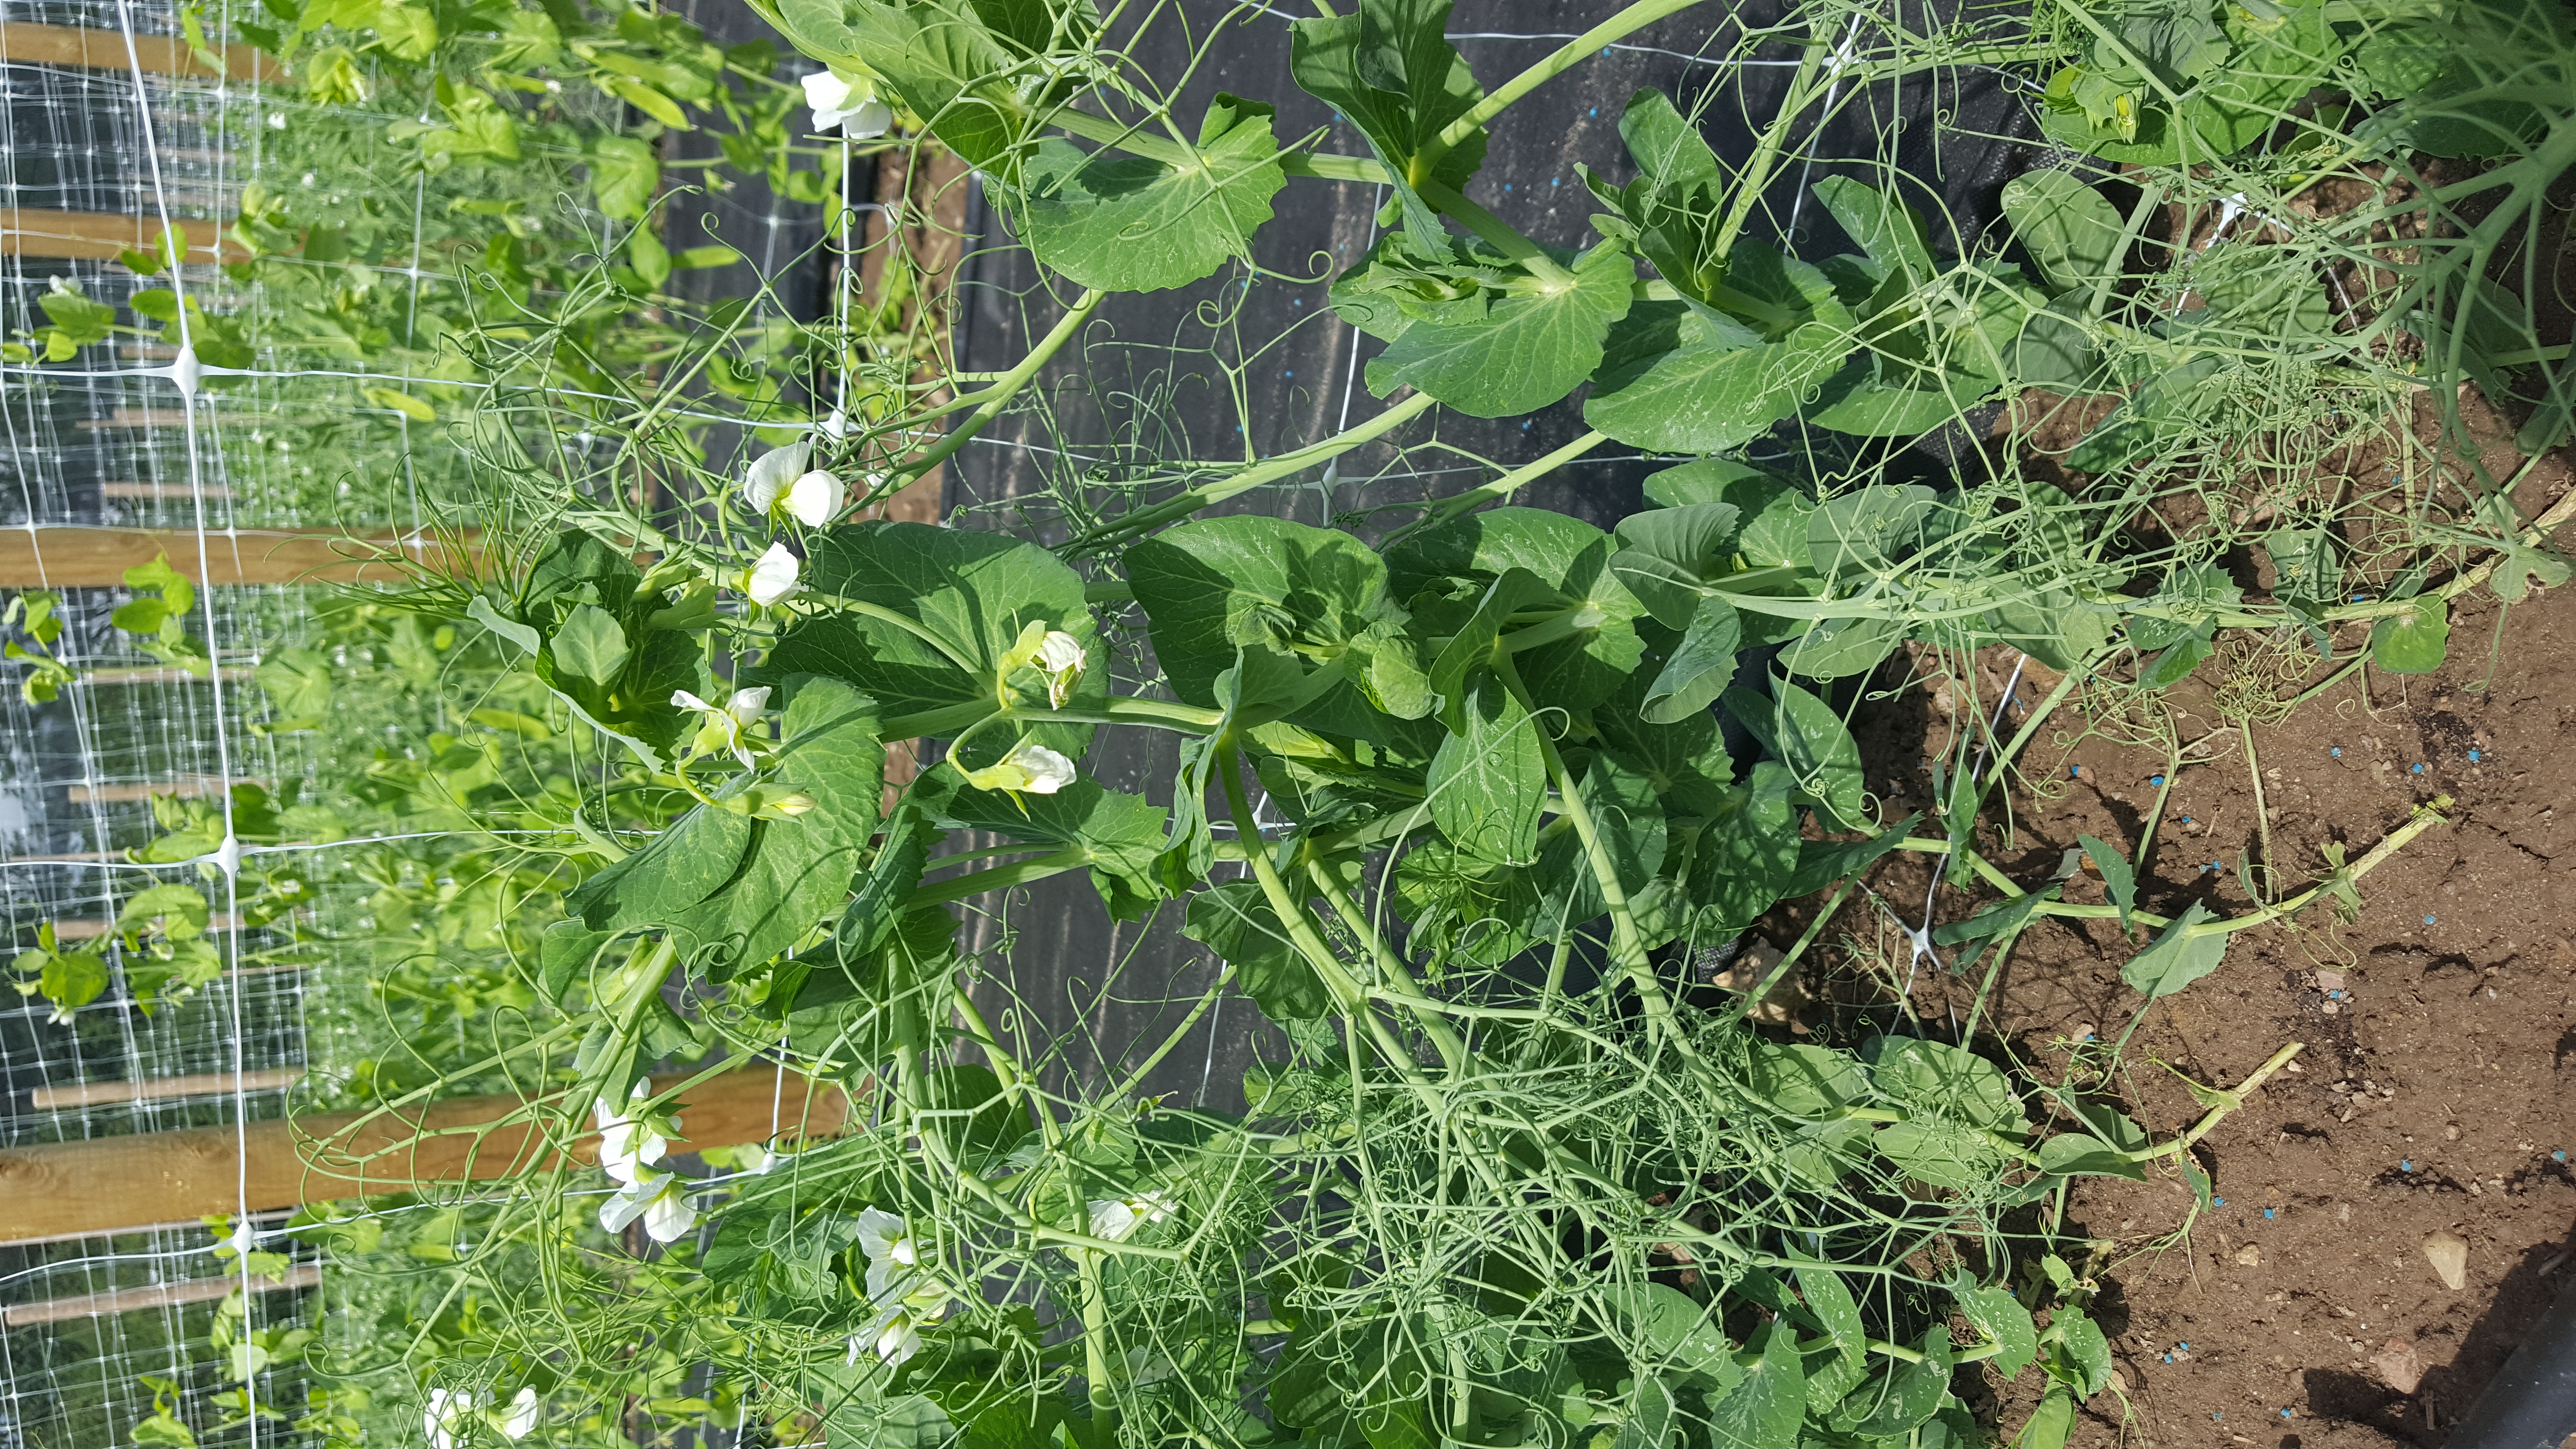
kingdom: Plantae
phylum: Tracheophyta
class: Magnoliopsida
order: Fabales
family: Fabaceae
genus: Lathyrus
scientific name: Lathyrus oleraceus
